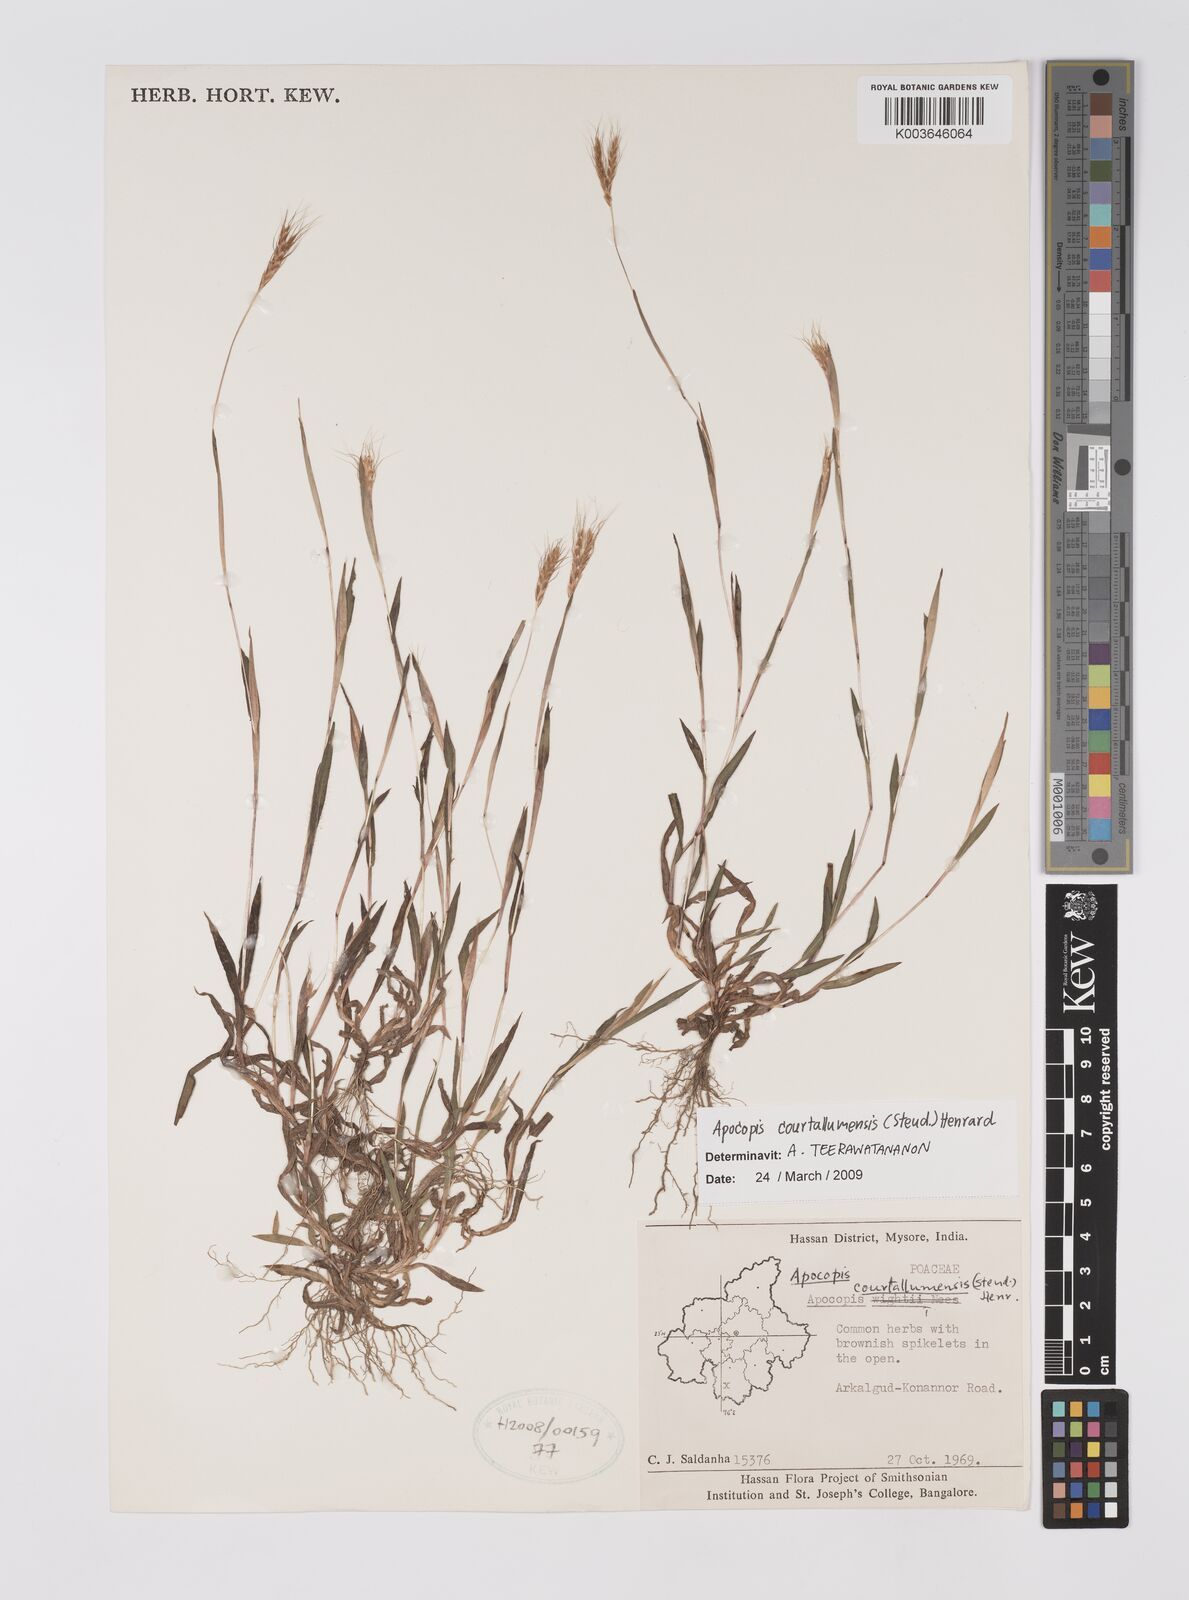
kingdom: Plantae
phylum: Tracheophyta
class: Liliopsida
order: Poales
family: Poaceae
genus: Apocopis
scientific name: Apocopis courtallumensis
